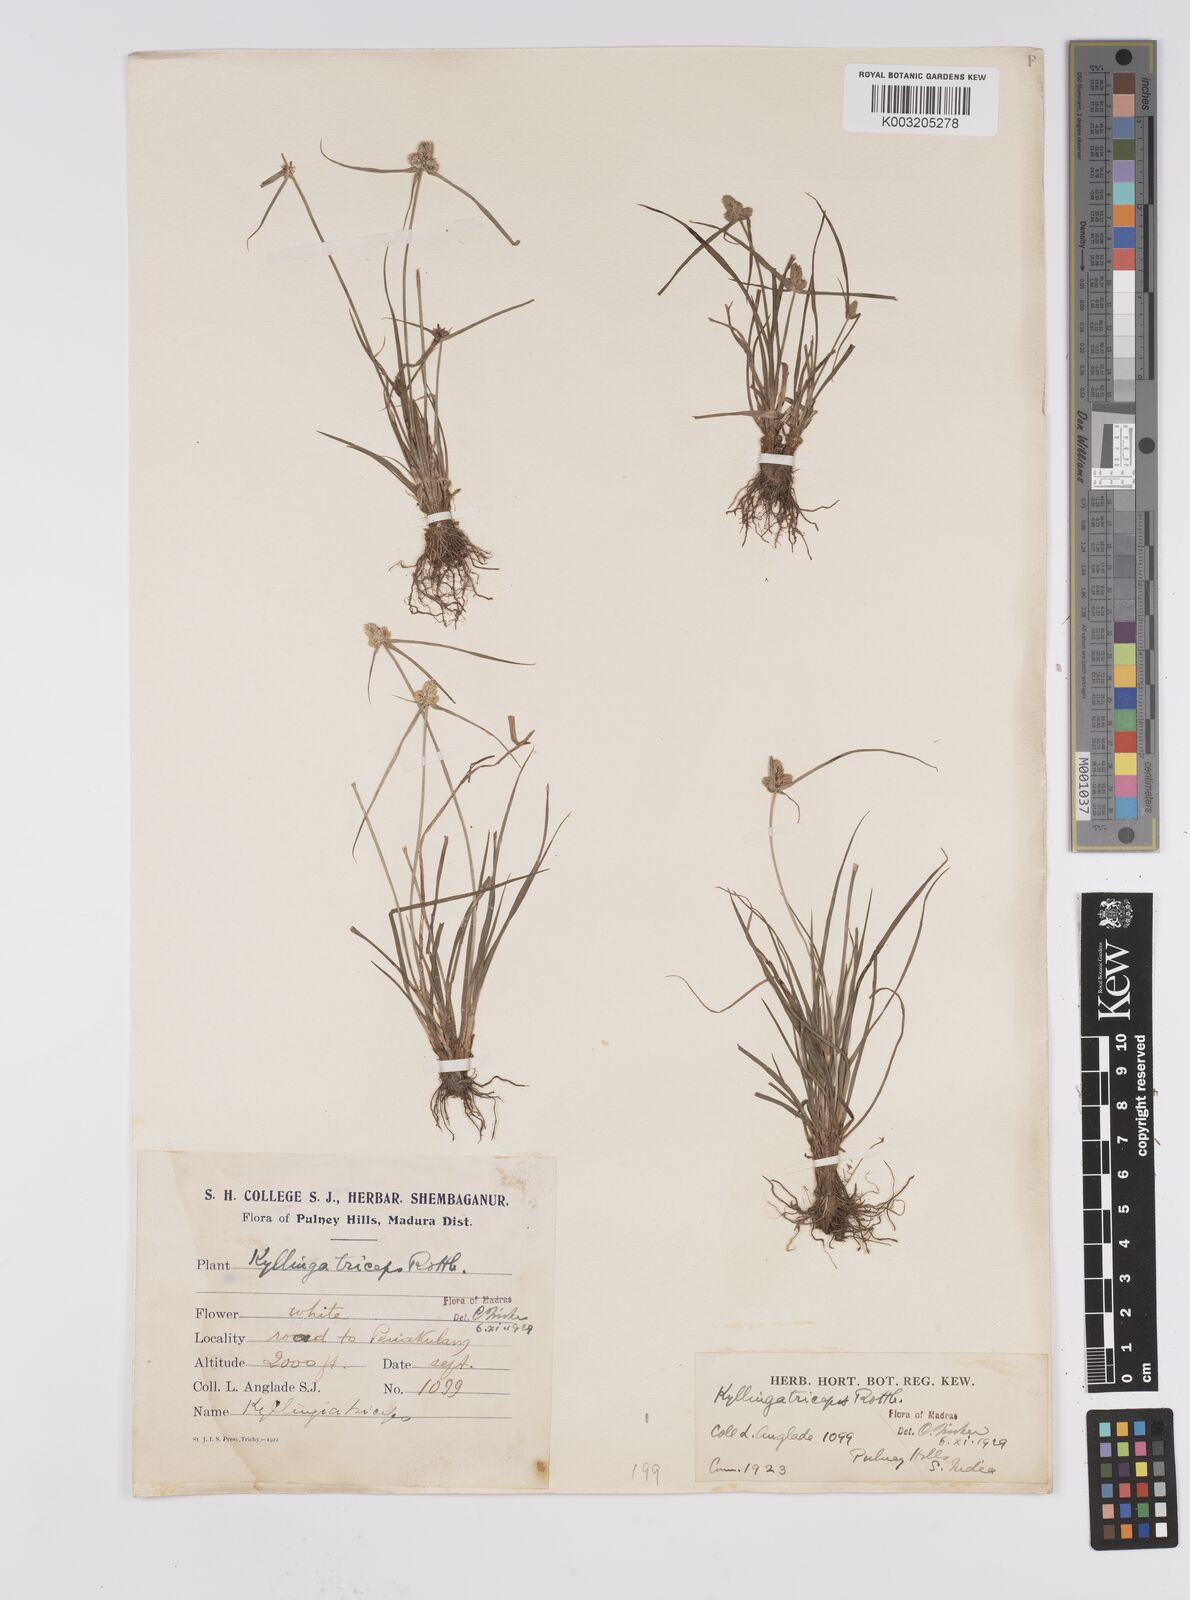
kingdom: Plantae
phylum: Tracheophyta
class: Liliopsida
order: Poales
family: Cyperaceae
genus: Cyperus
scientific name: Cyperus
